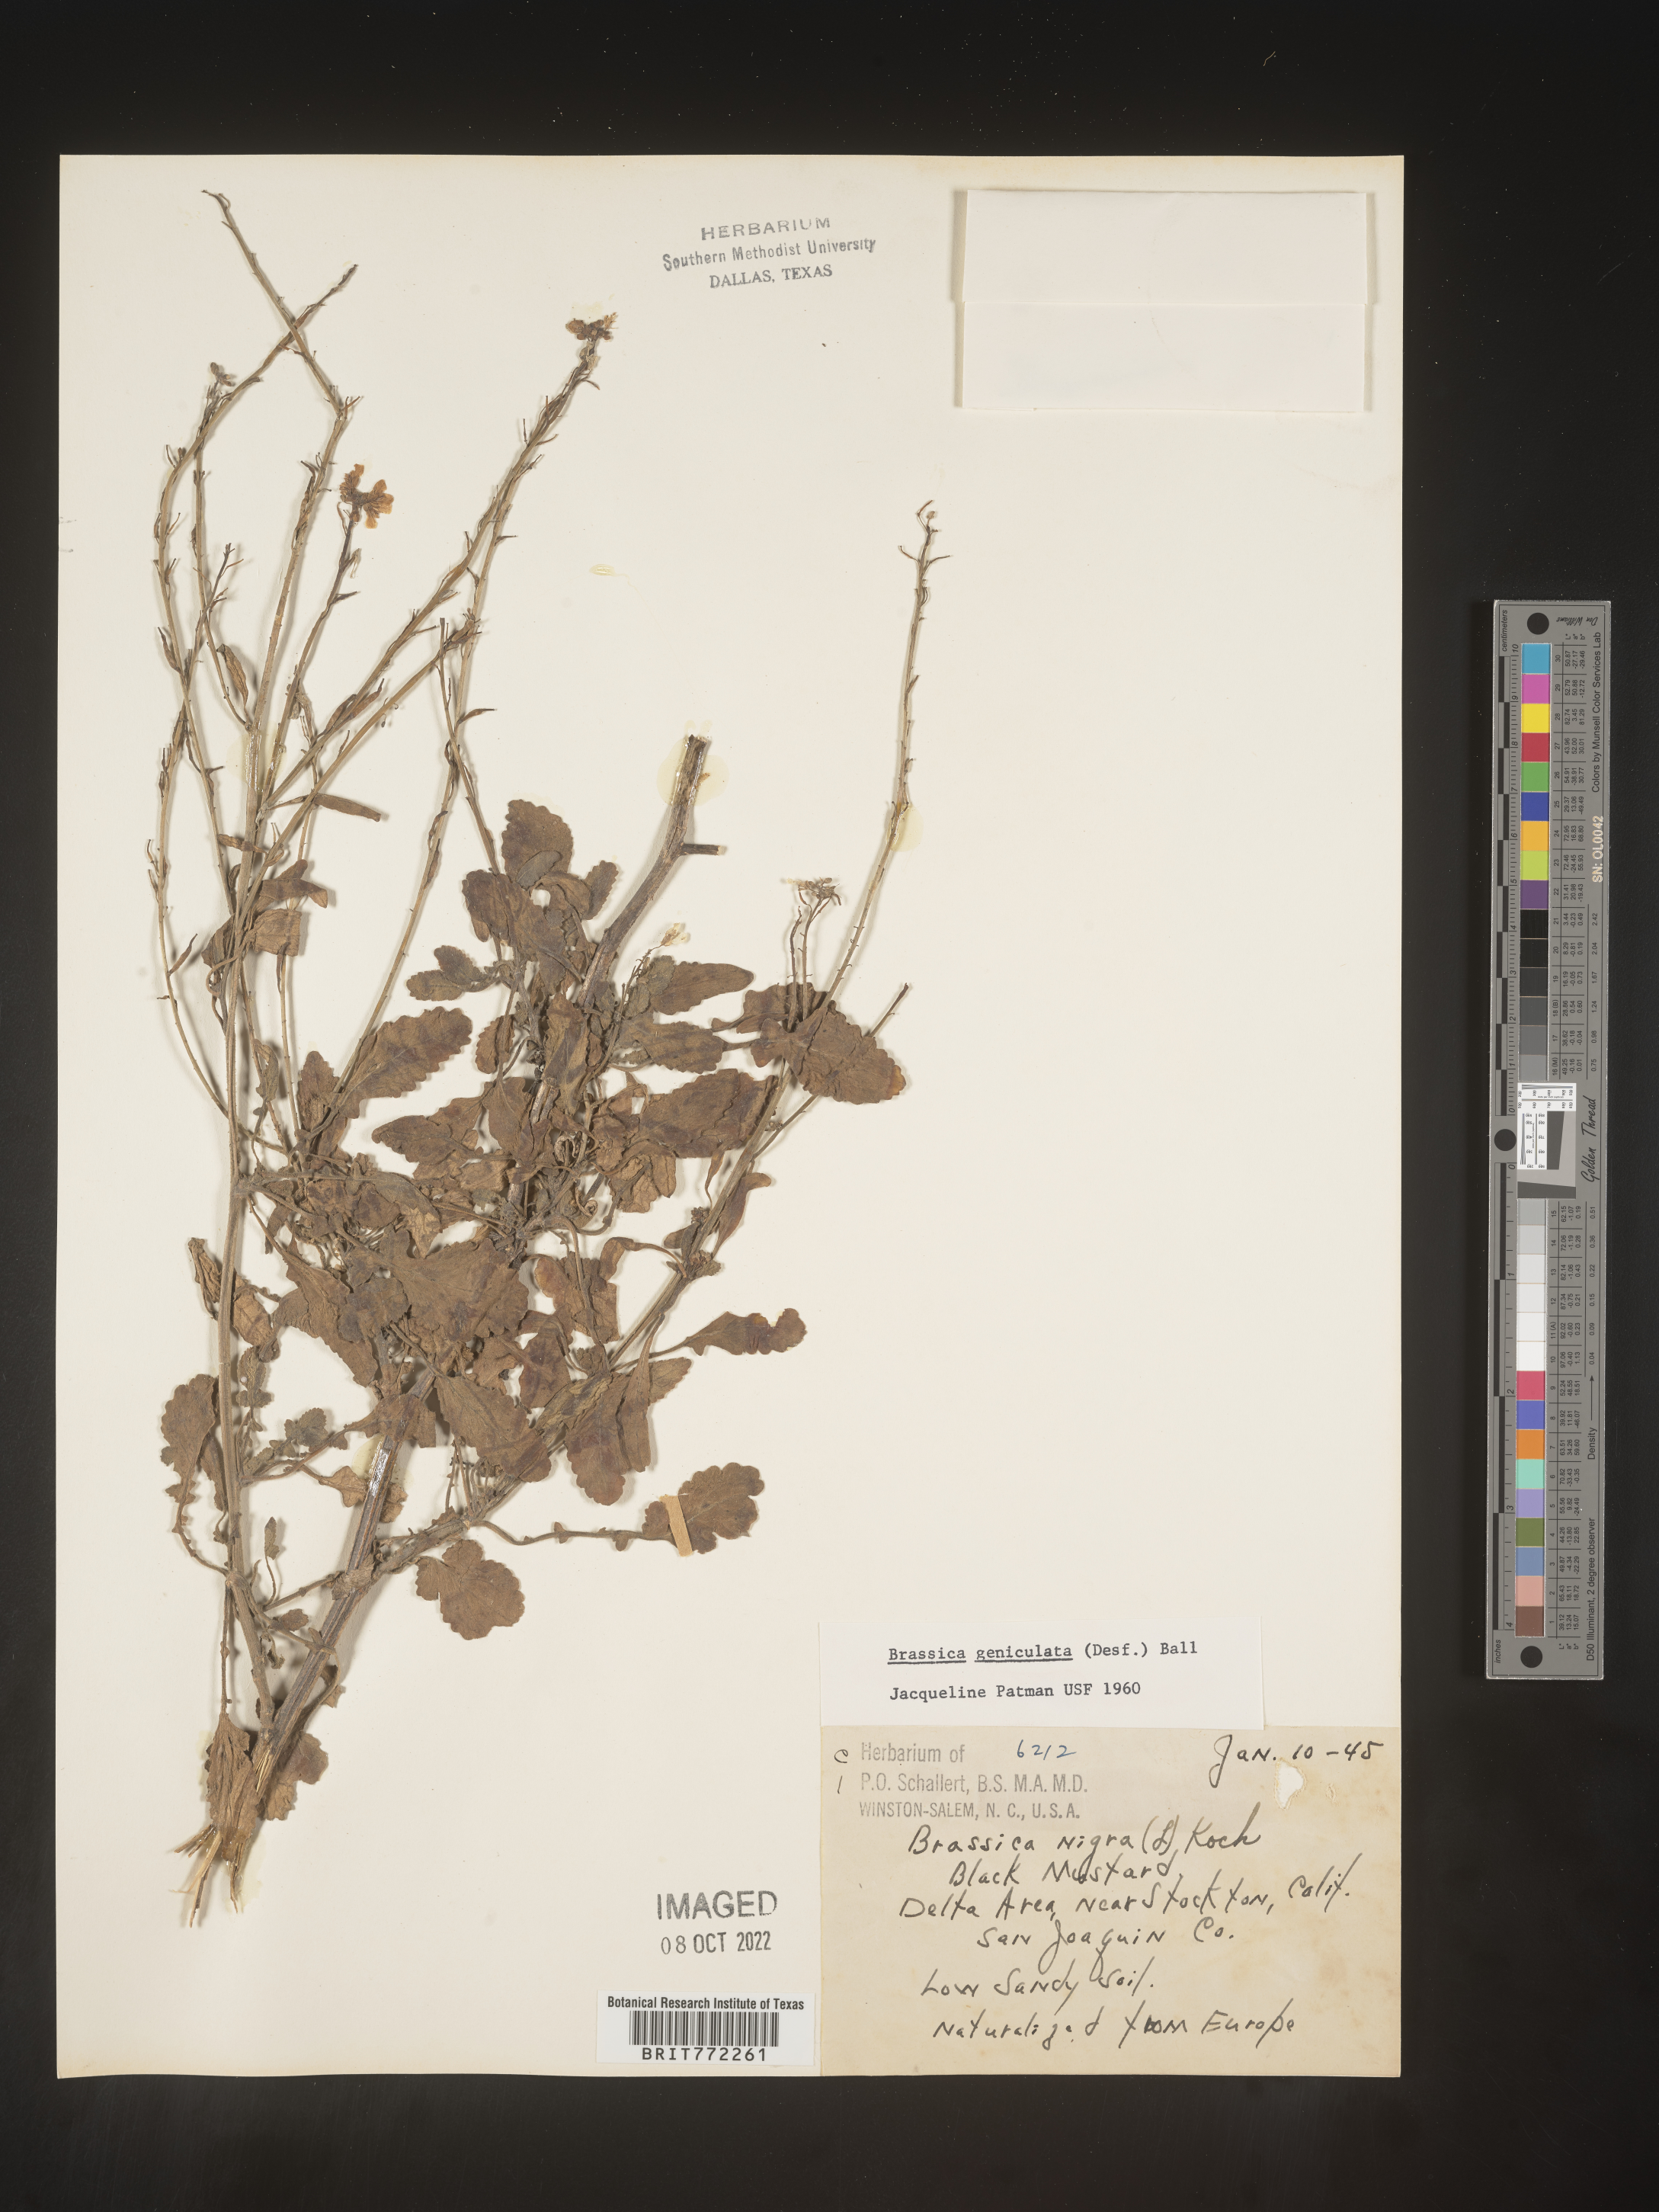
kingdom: Plantae
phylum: Tracheophyta
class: Magnoliopsida
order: Brassicales
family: Brassicaceae
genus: Hirschfeldia
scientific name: Hirschfeldia incana
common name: Hoary mustard
